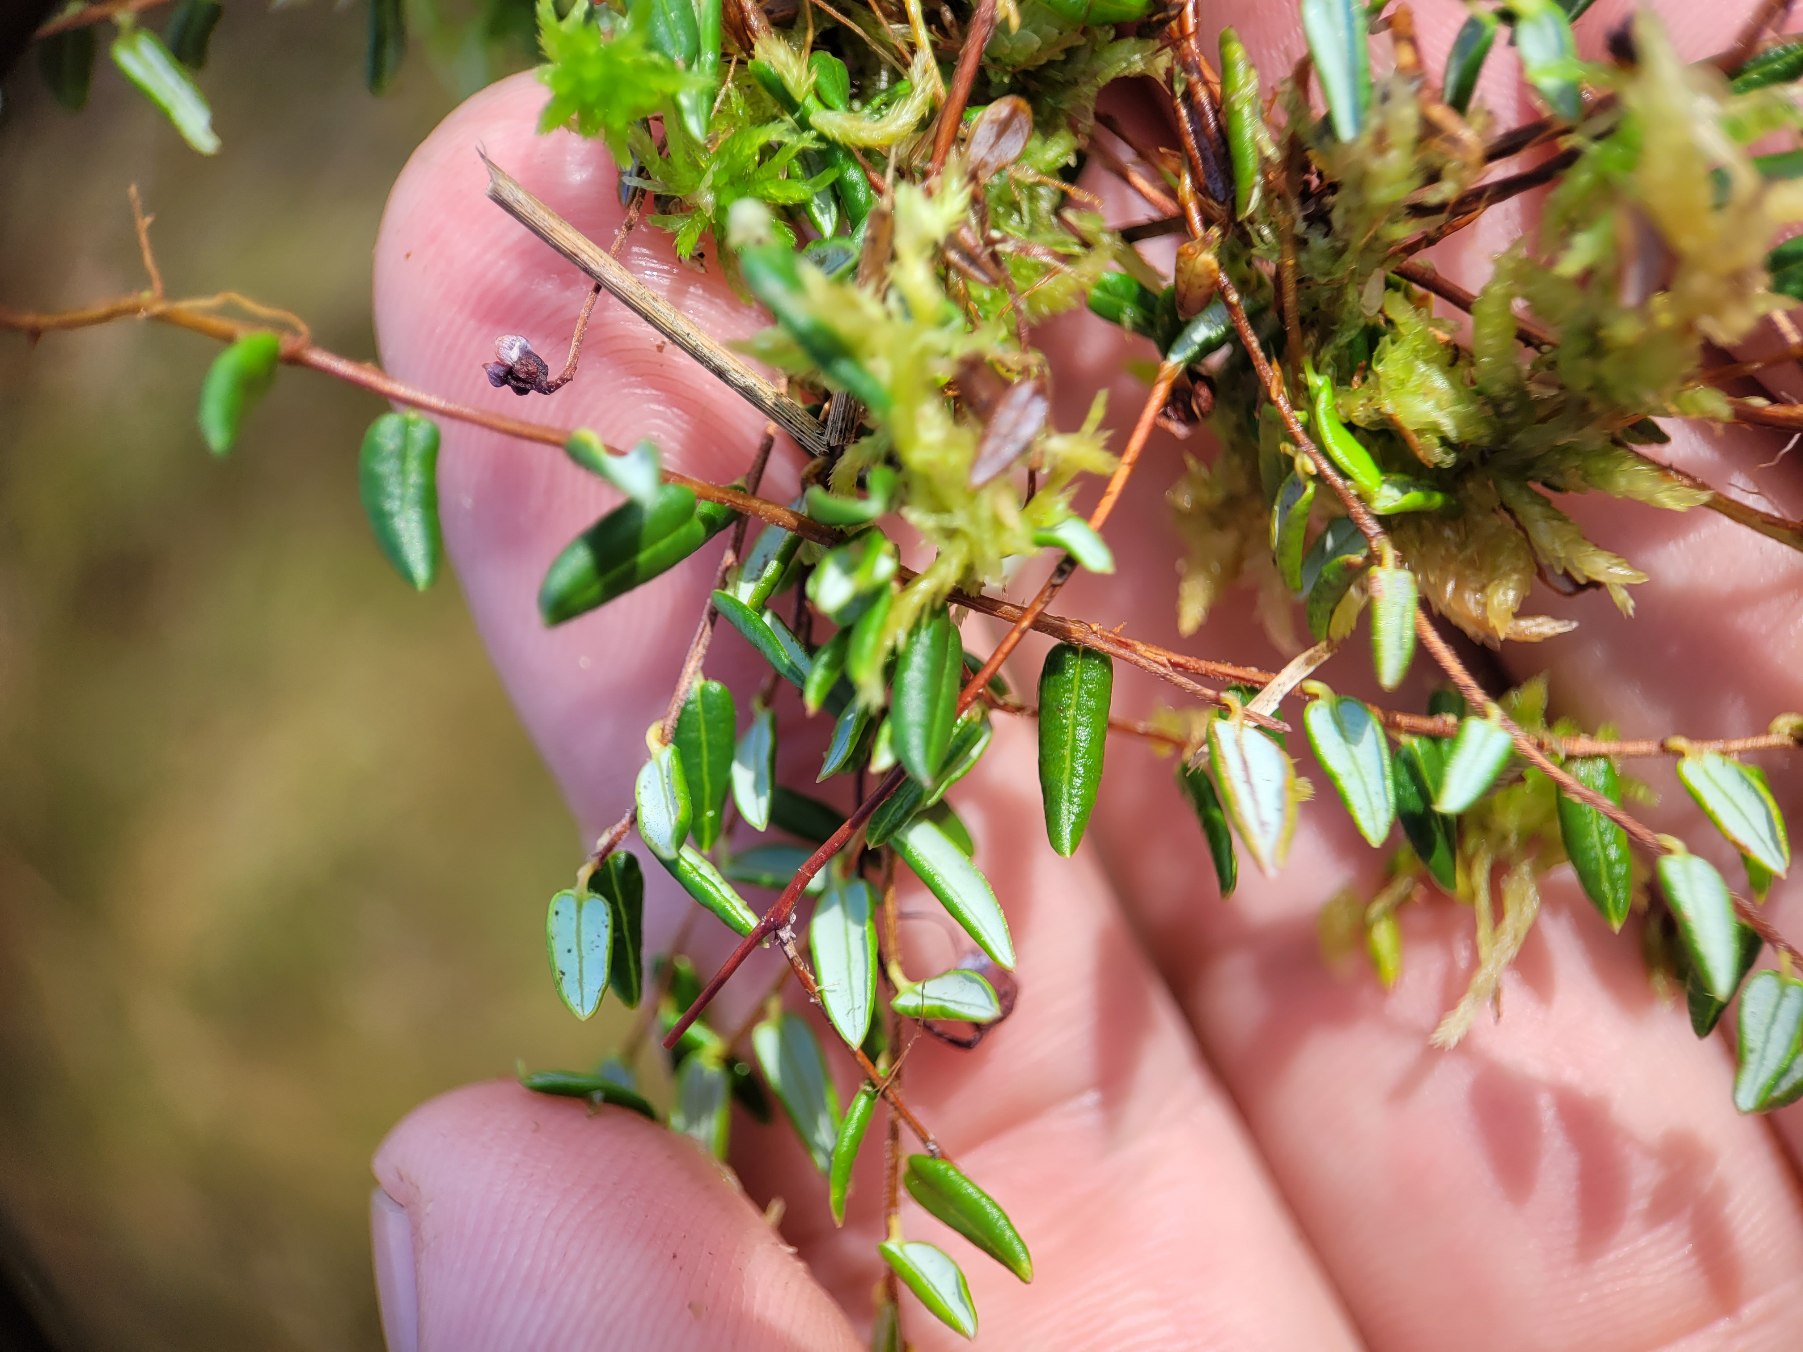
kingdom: Plantae
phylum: Tracheophyta
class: Magnoliopsida
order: Ericales
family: Ericaceae
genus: Vaccinium
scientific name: Vaccinium oxycoccos
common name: Tranebær
